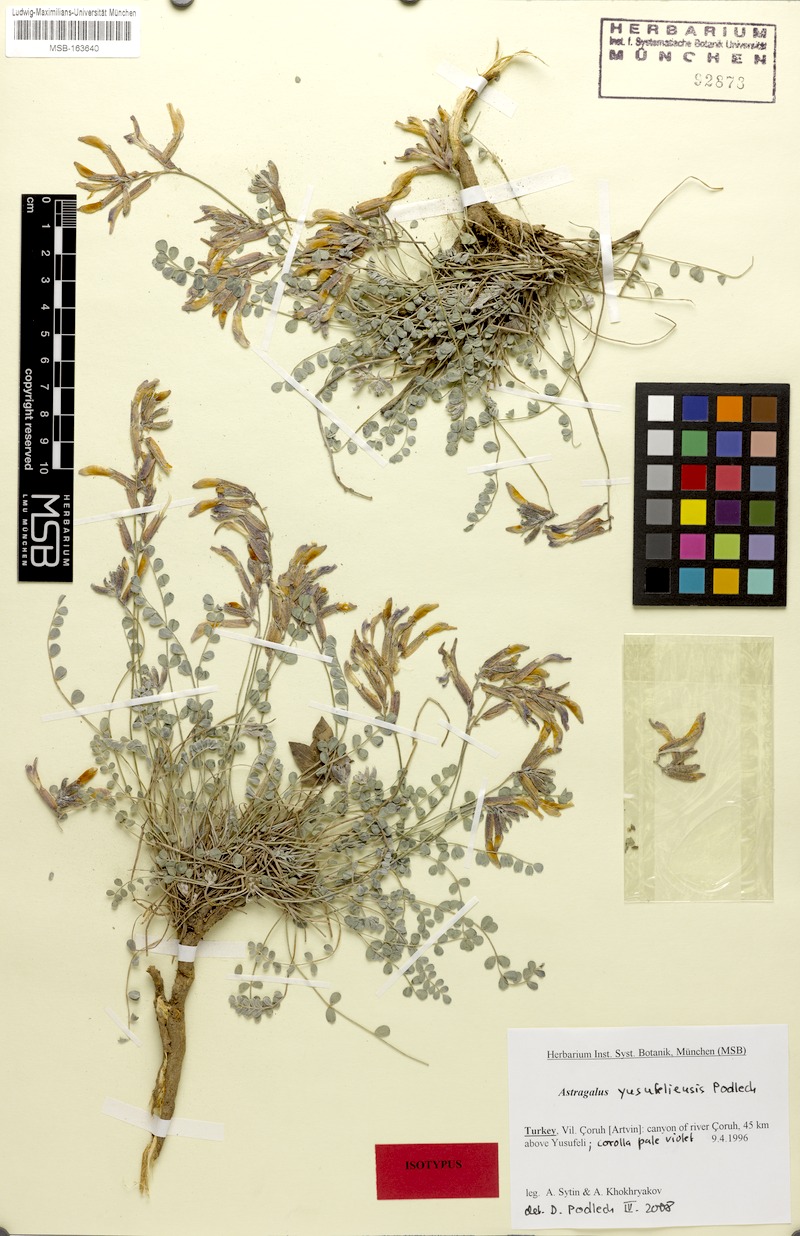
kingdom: Plantae
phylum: Tracheophyta
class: Magnoliopsida
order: Fabales
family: Fabaceae
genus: Astragalus
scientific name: Astragalus czorochensis
